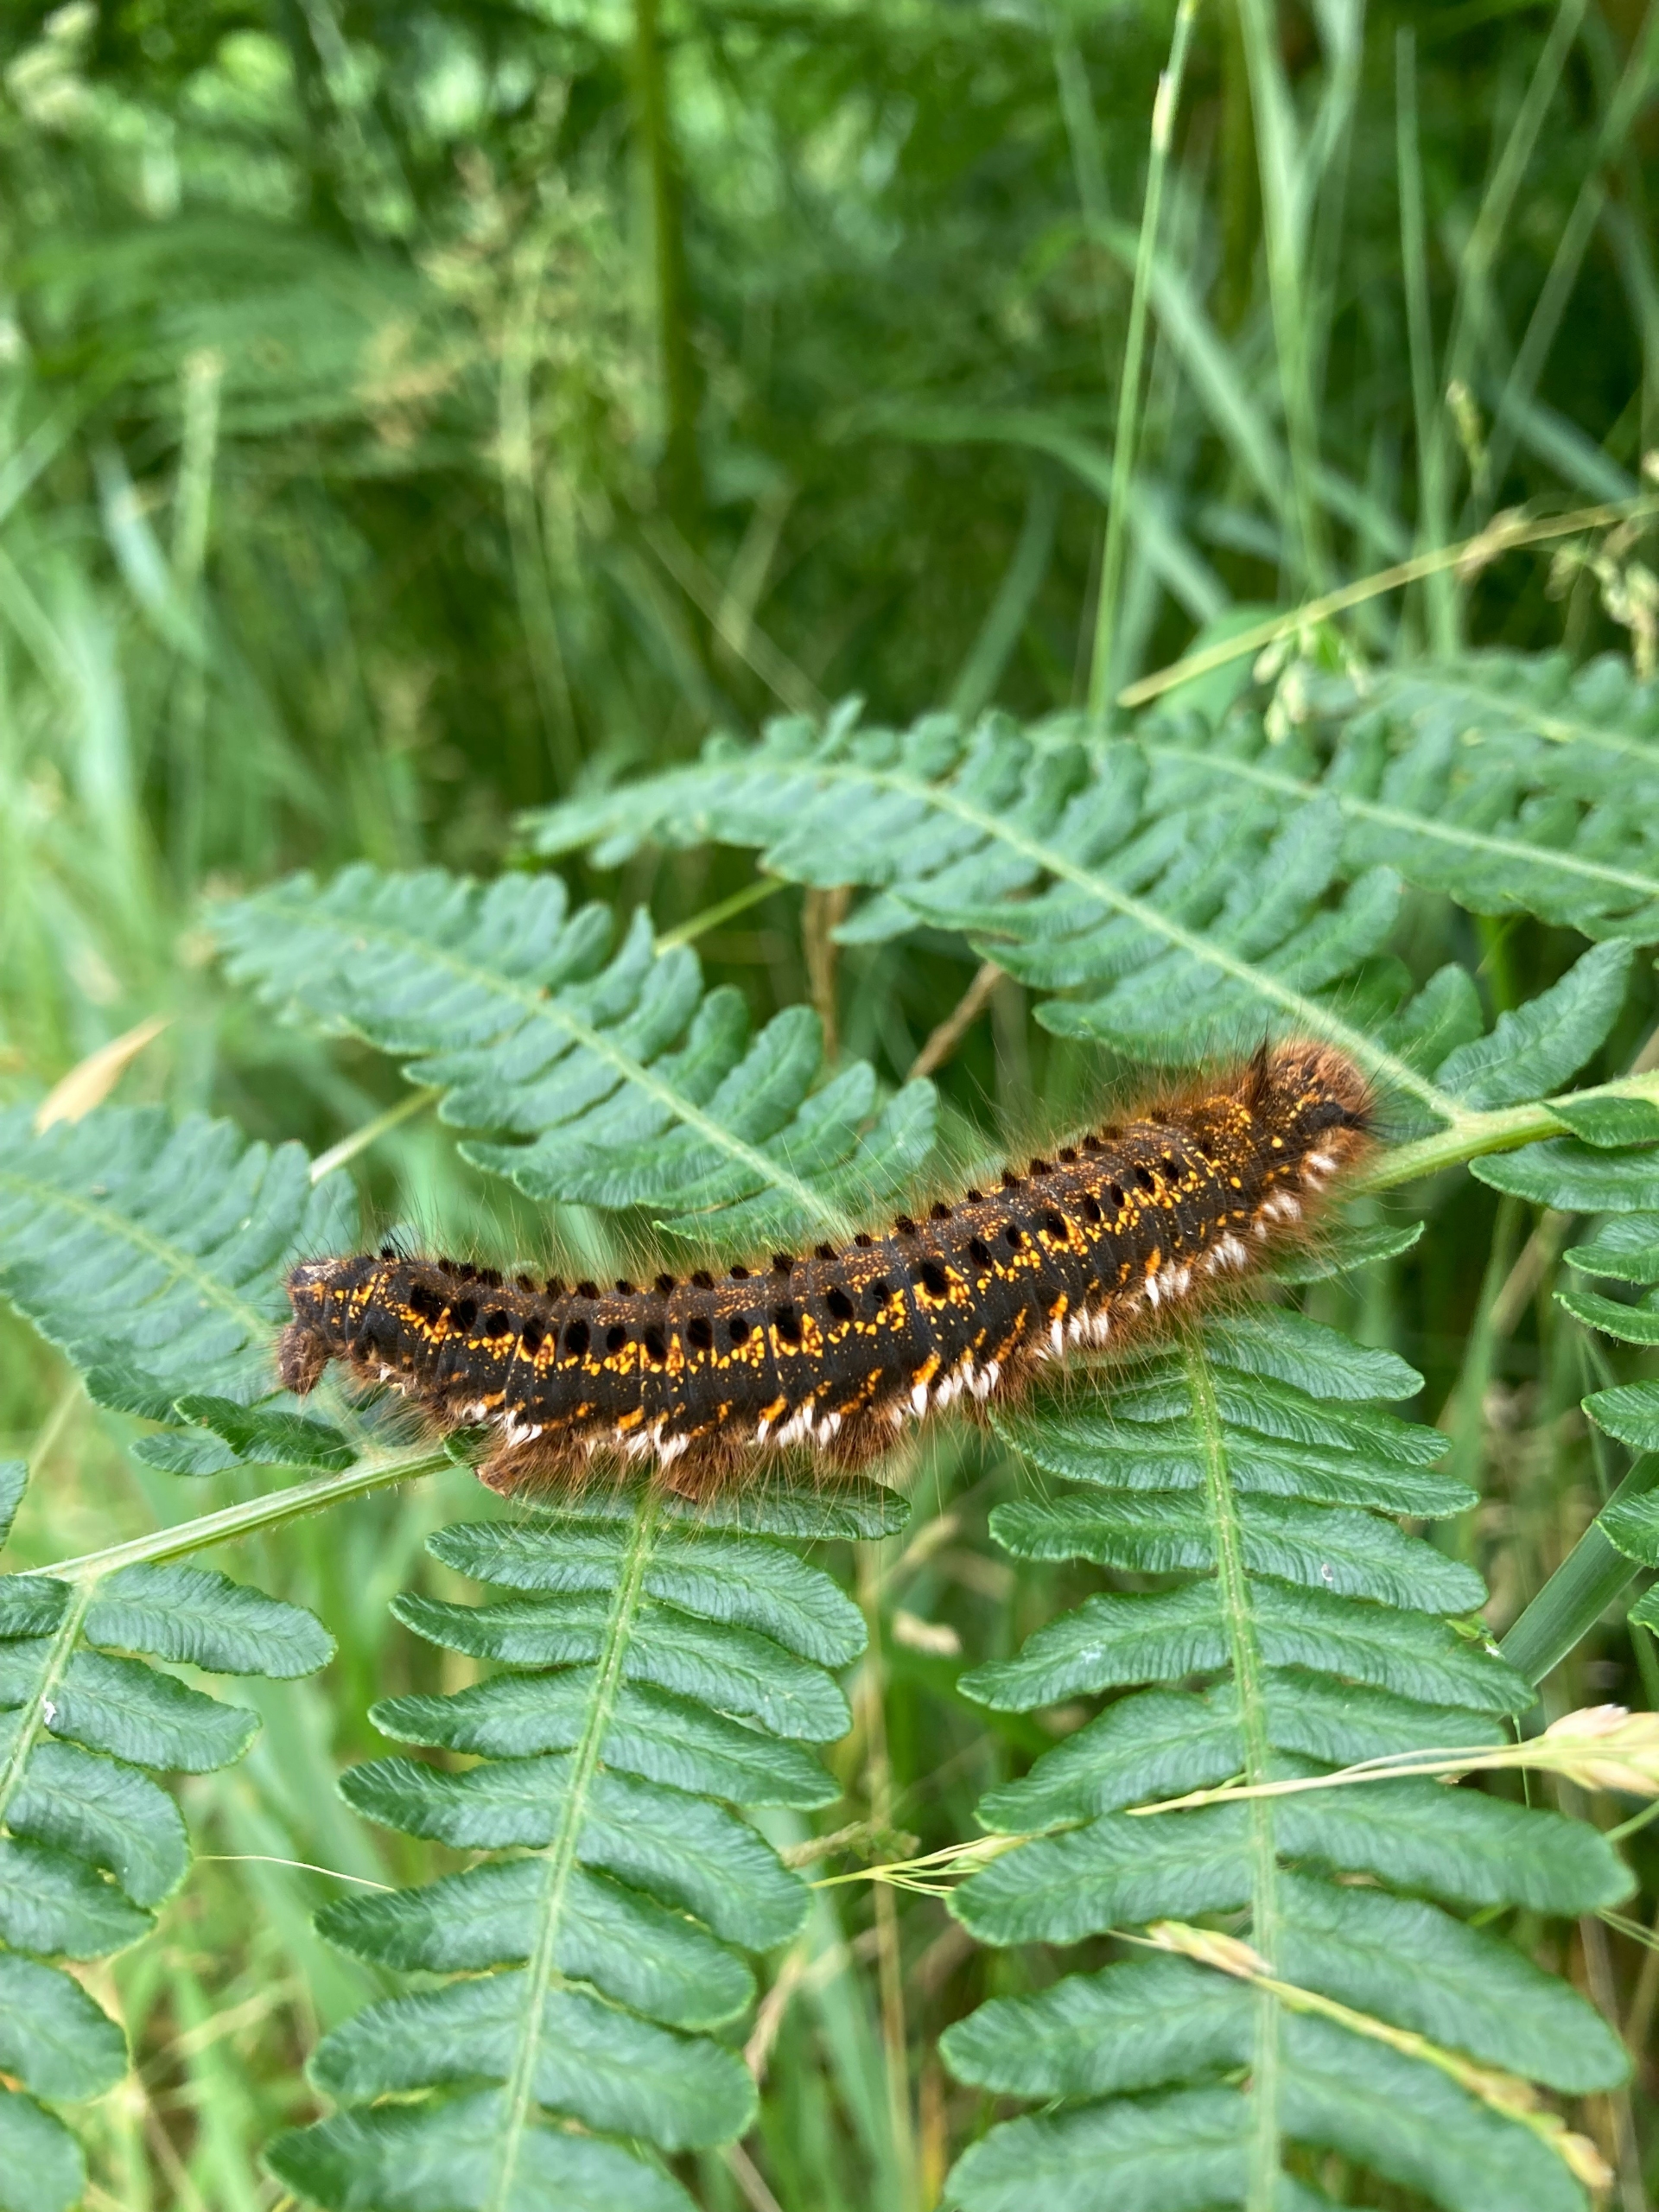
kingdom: Animalia
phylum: Arthropoda
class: Insecta
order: Lepidoptera
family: Lasiocampidae
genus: Euthrix
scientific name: Euthrix potatoria
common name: Græsspinder
